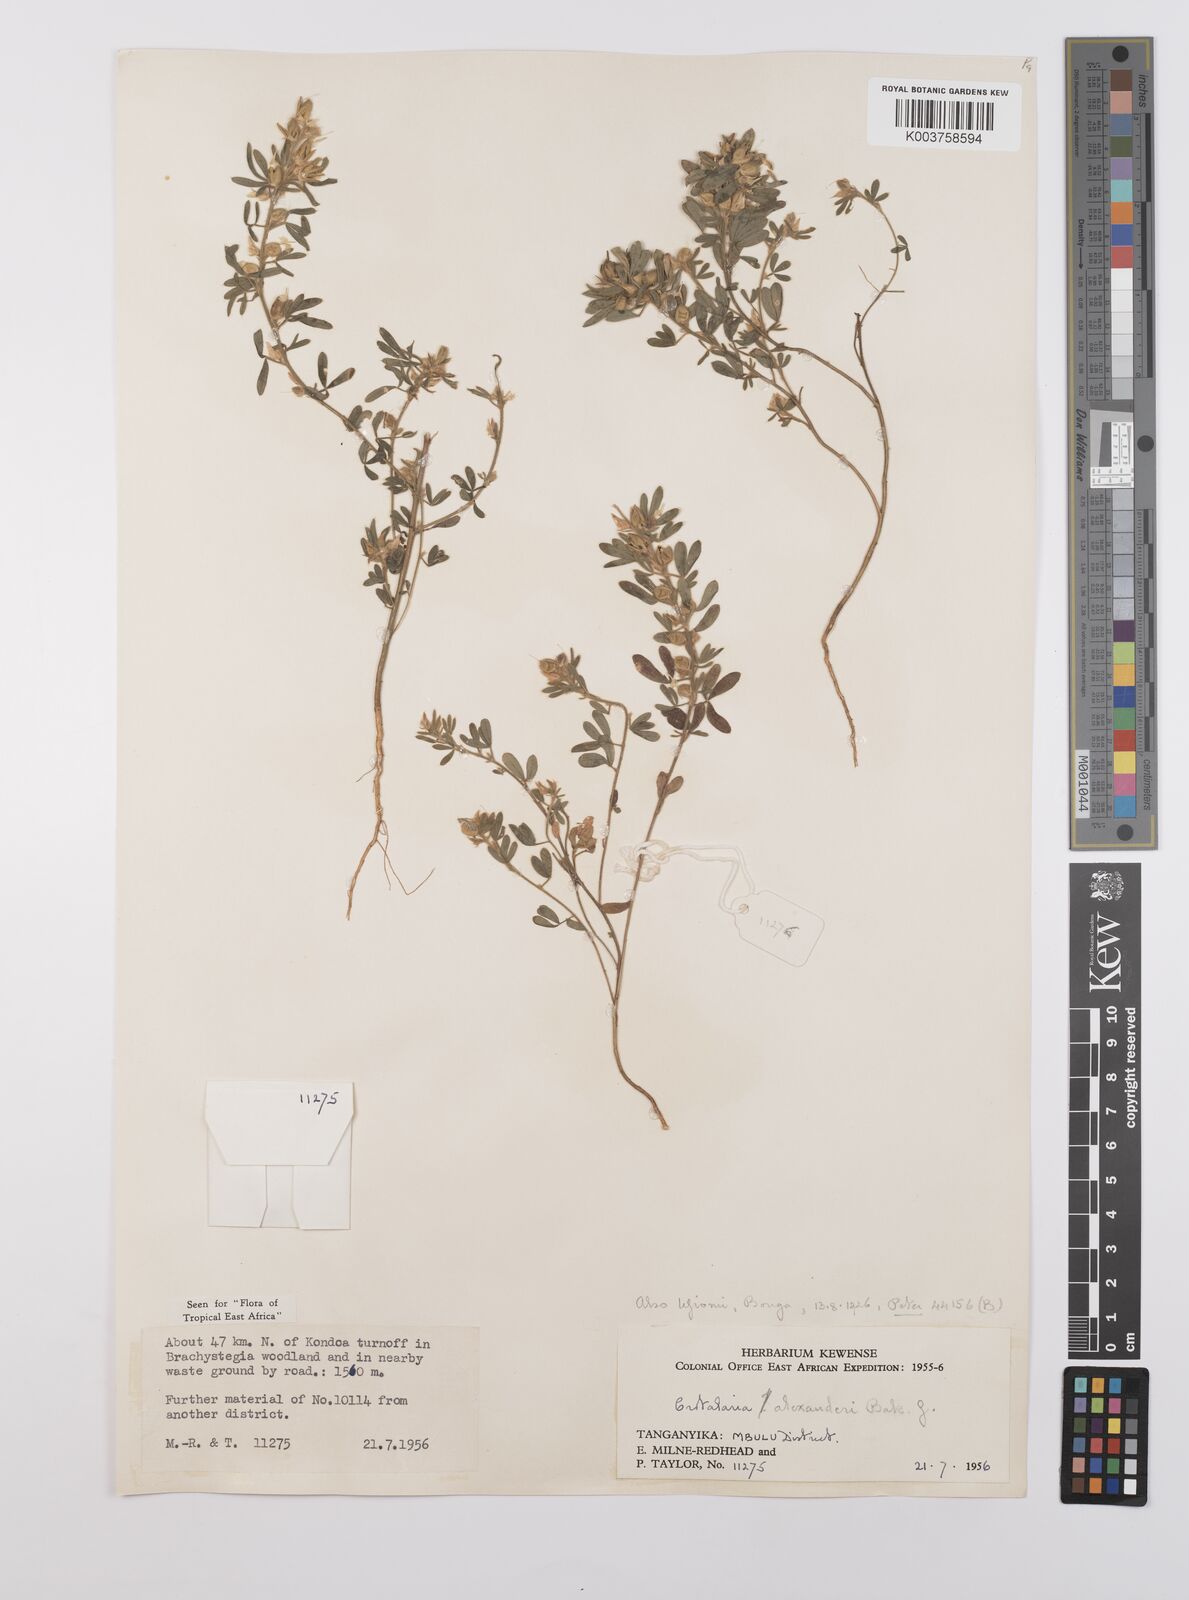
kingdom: Plantae
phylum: Tracheophyta
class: Magnoliopsida
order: Fabales
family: Fabaceae
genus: Crotalaria
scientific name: Crotalaria alexandri
